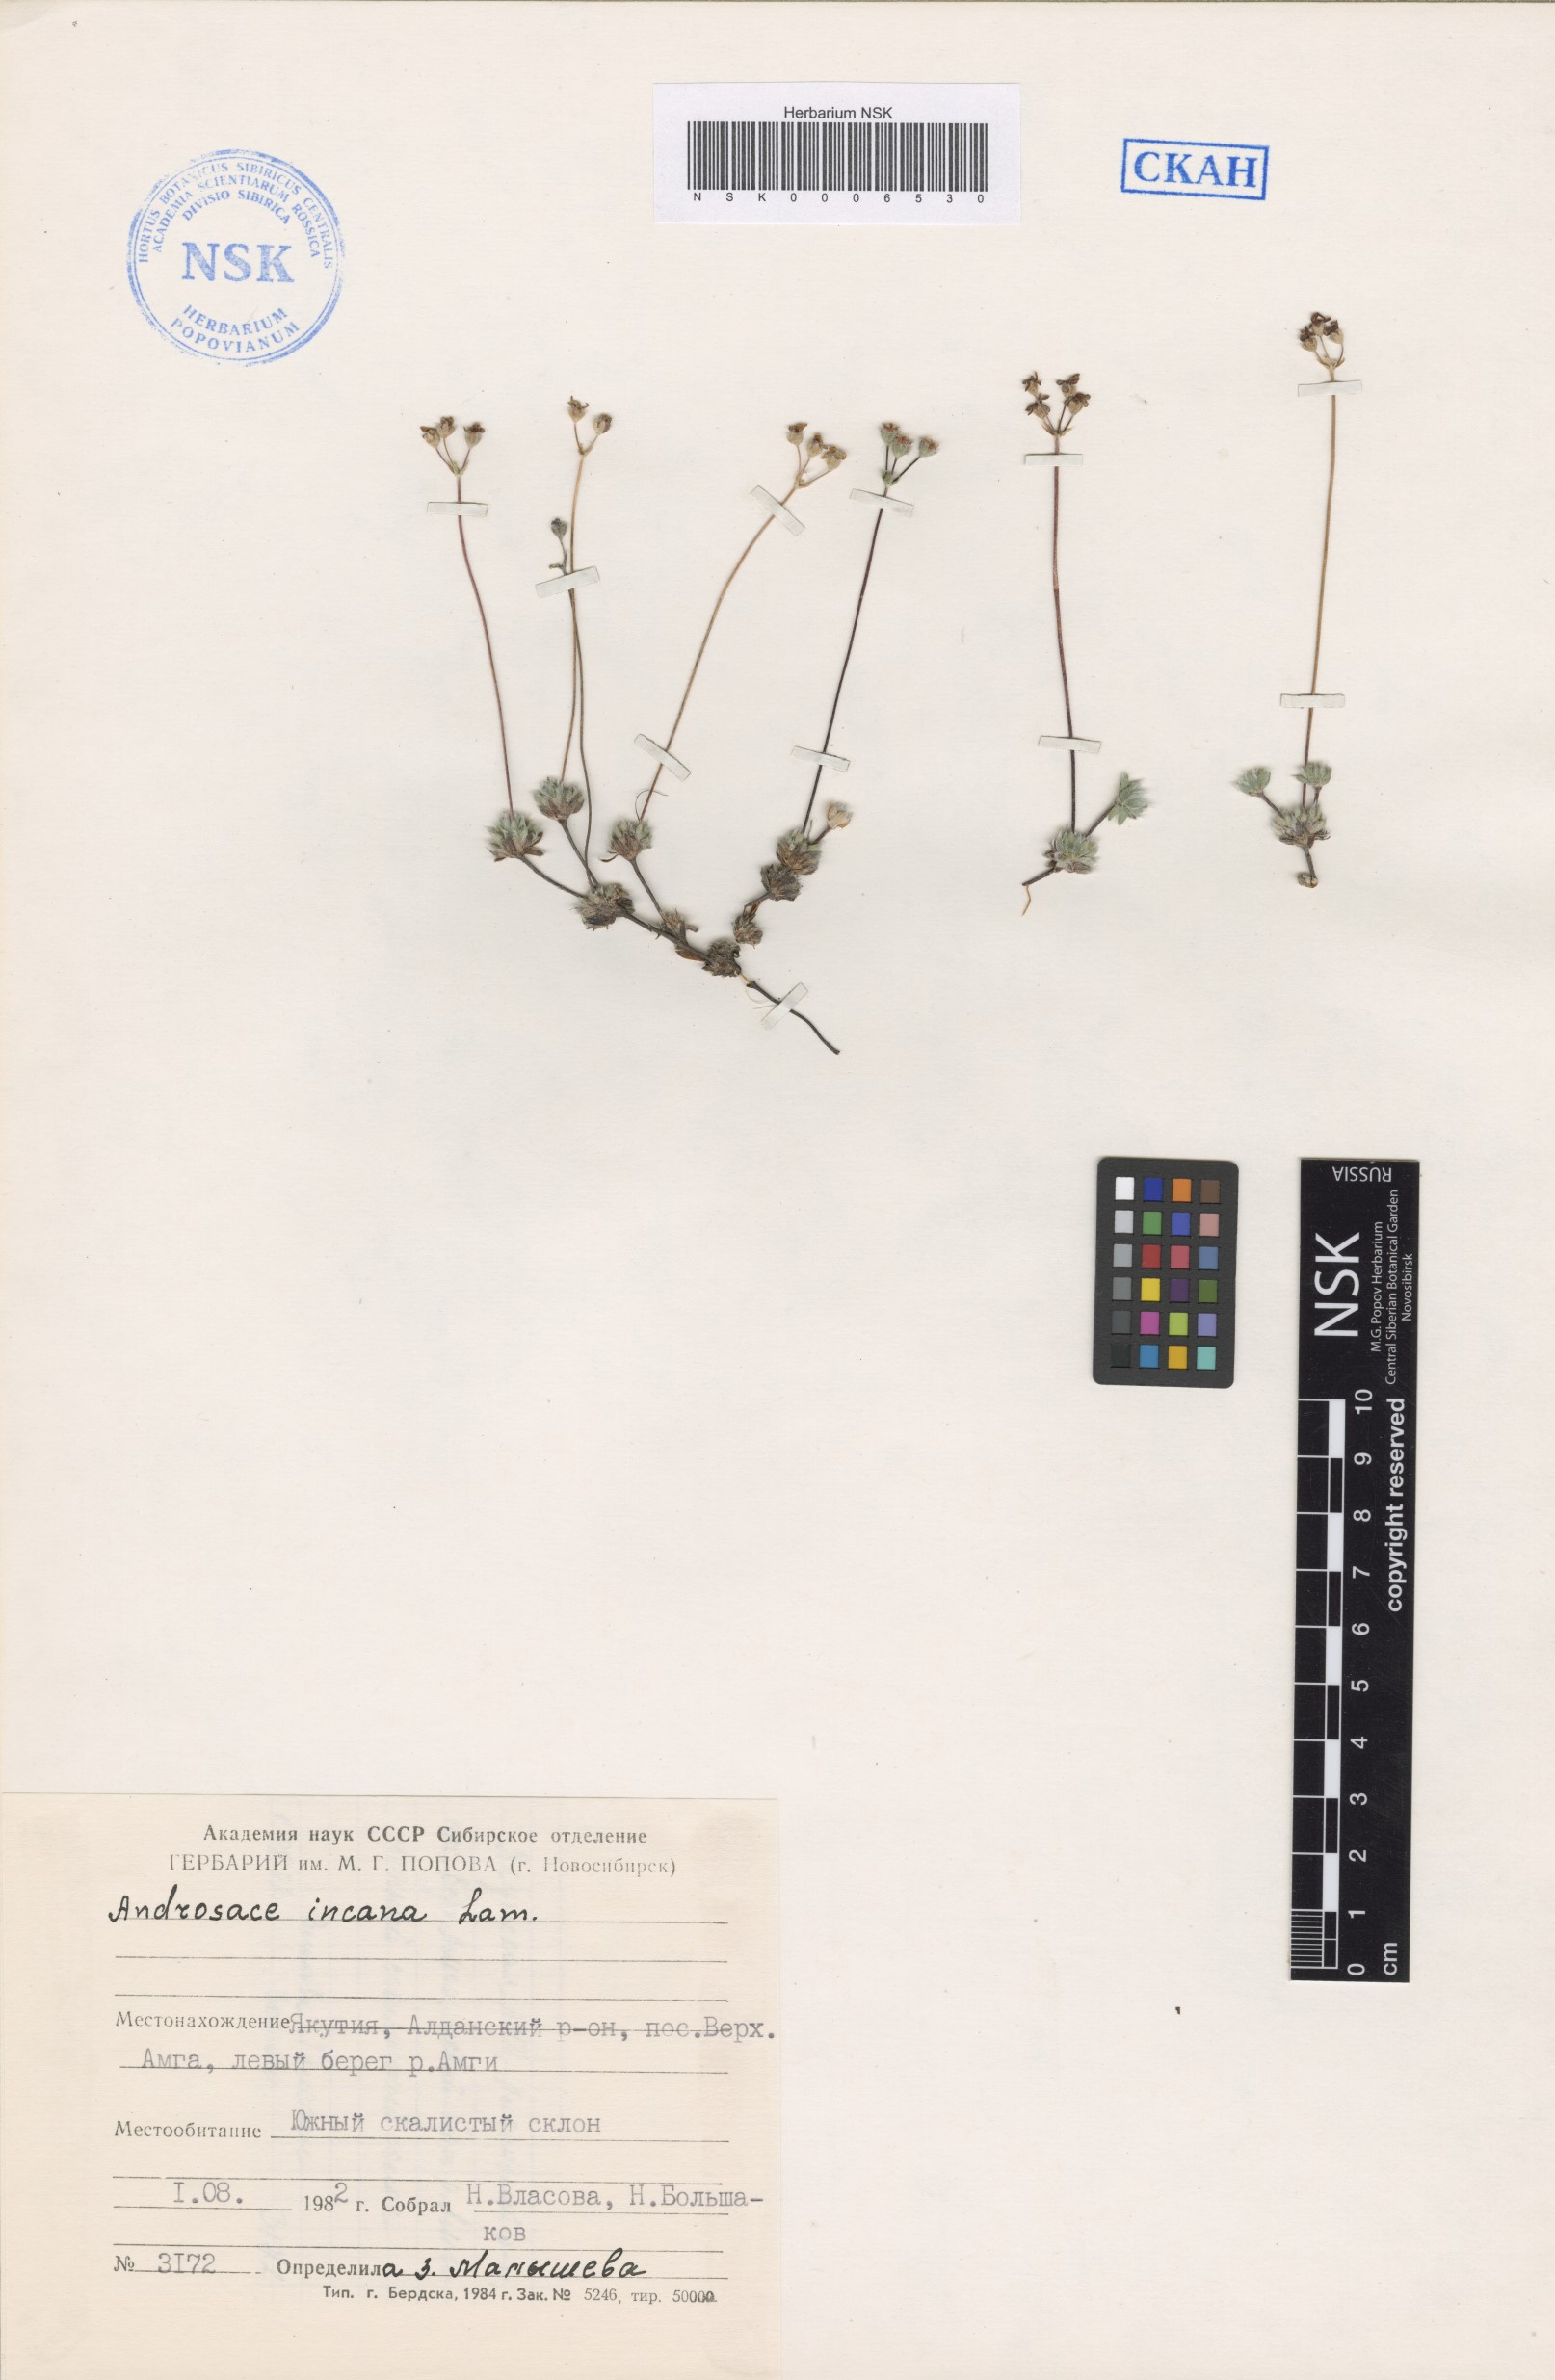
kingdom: Plantae
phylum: Tracheophyta
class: Magnoliopsida
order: Ericales
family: Primulaceae
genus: Androsace
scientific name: Androsace incana
